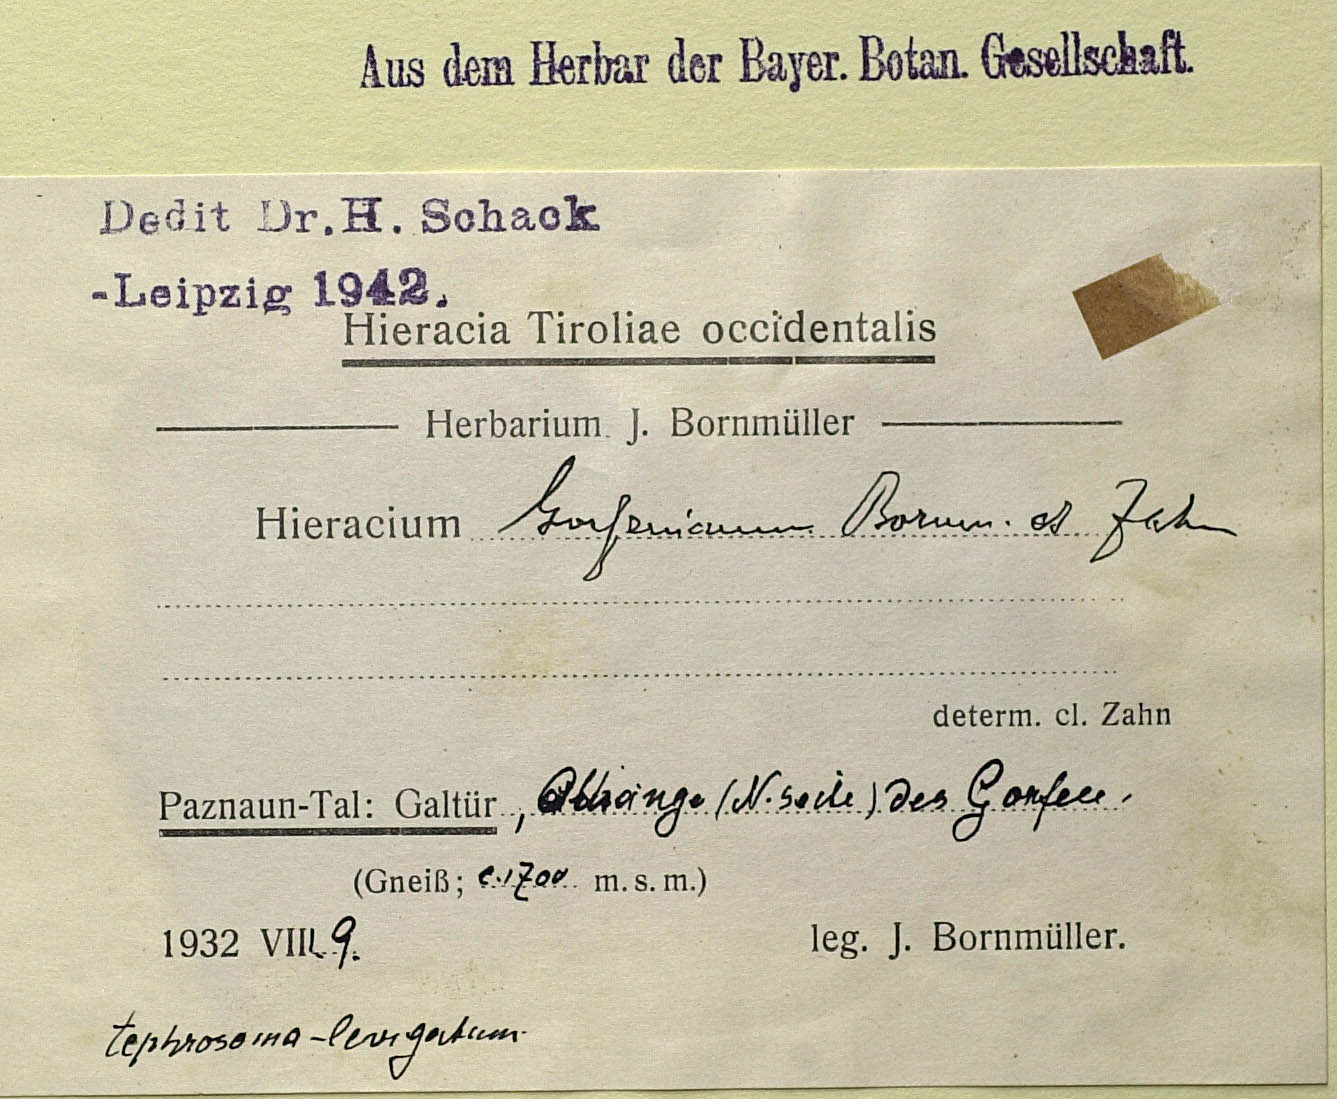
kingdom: Plantae
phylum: Tracheophyta
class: Magnoliopsida
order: Asterales
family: Asteraceae
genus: Hieracium
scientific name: Hieracium gorfenianum
